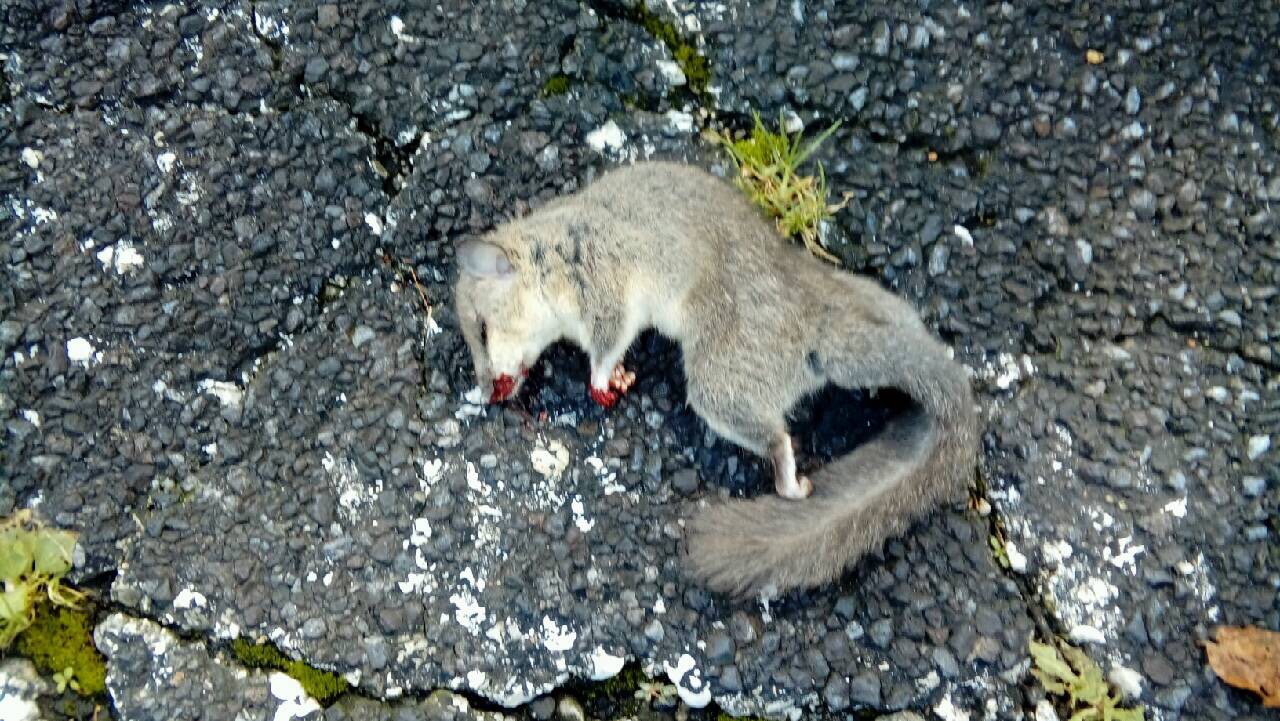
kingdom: Animalia
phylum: Chordata
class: Mammalia
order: Rodentia
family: Gliridae
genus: Glis
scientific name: Glis glis
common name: Fat dormouse
